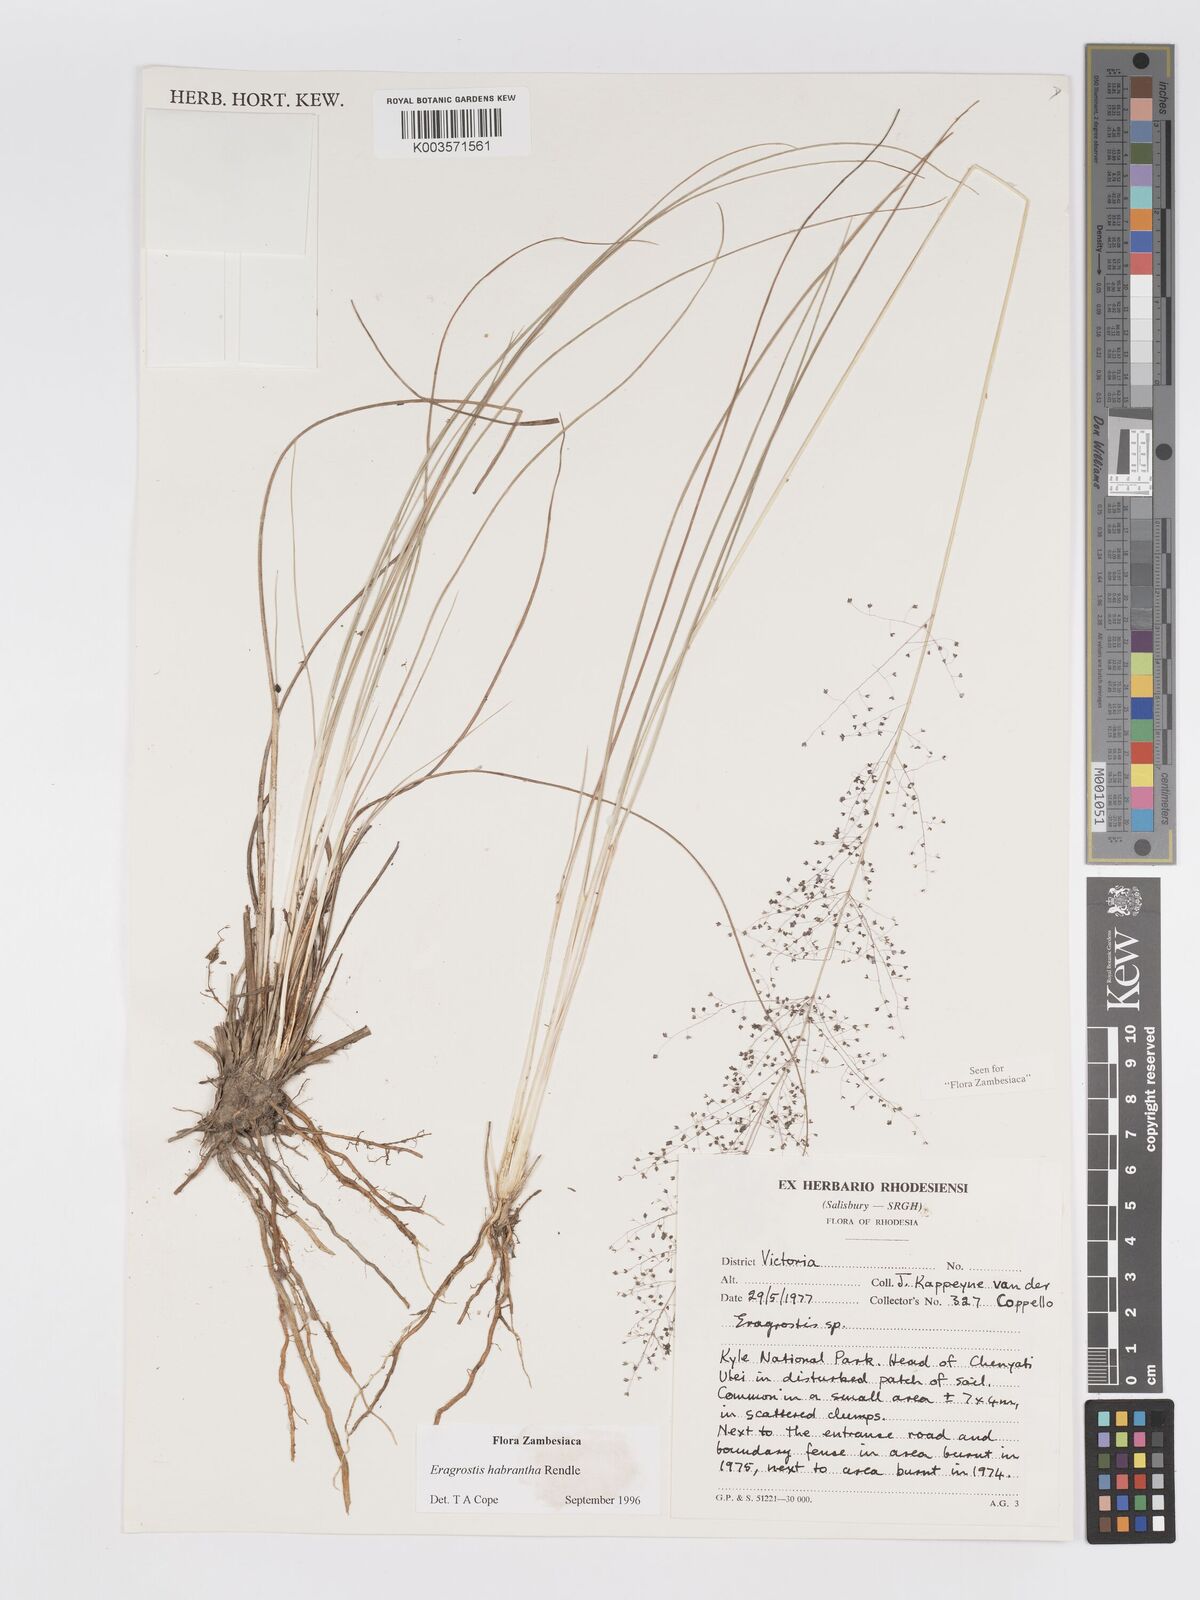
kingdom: Plantae
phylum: Tracheophyta
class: Liliopsida
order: Poales
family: Poaceae
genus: Eragrostis
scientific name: Eragrostis habrantha
